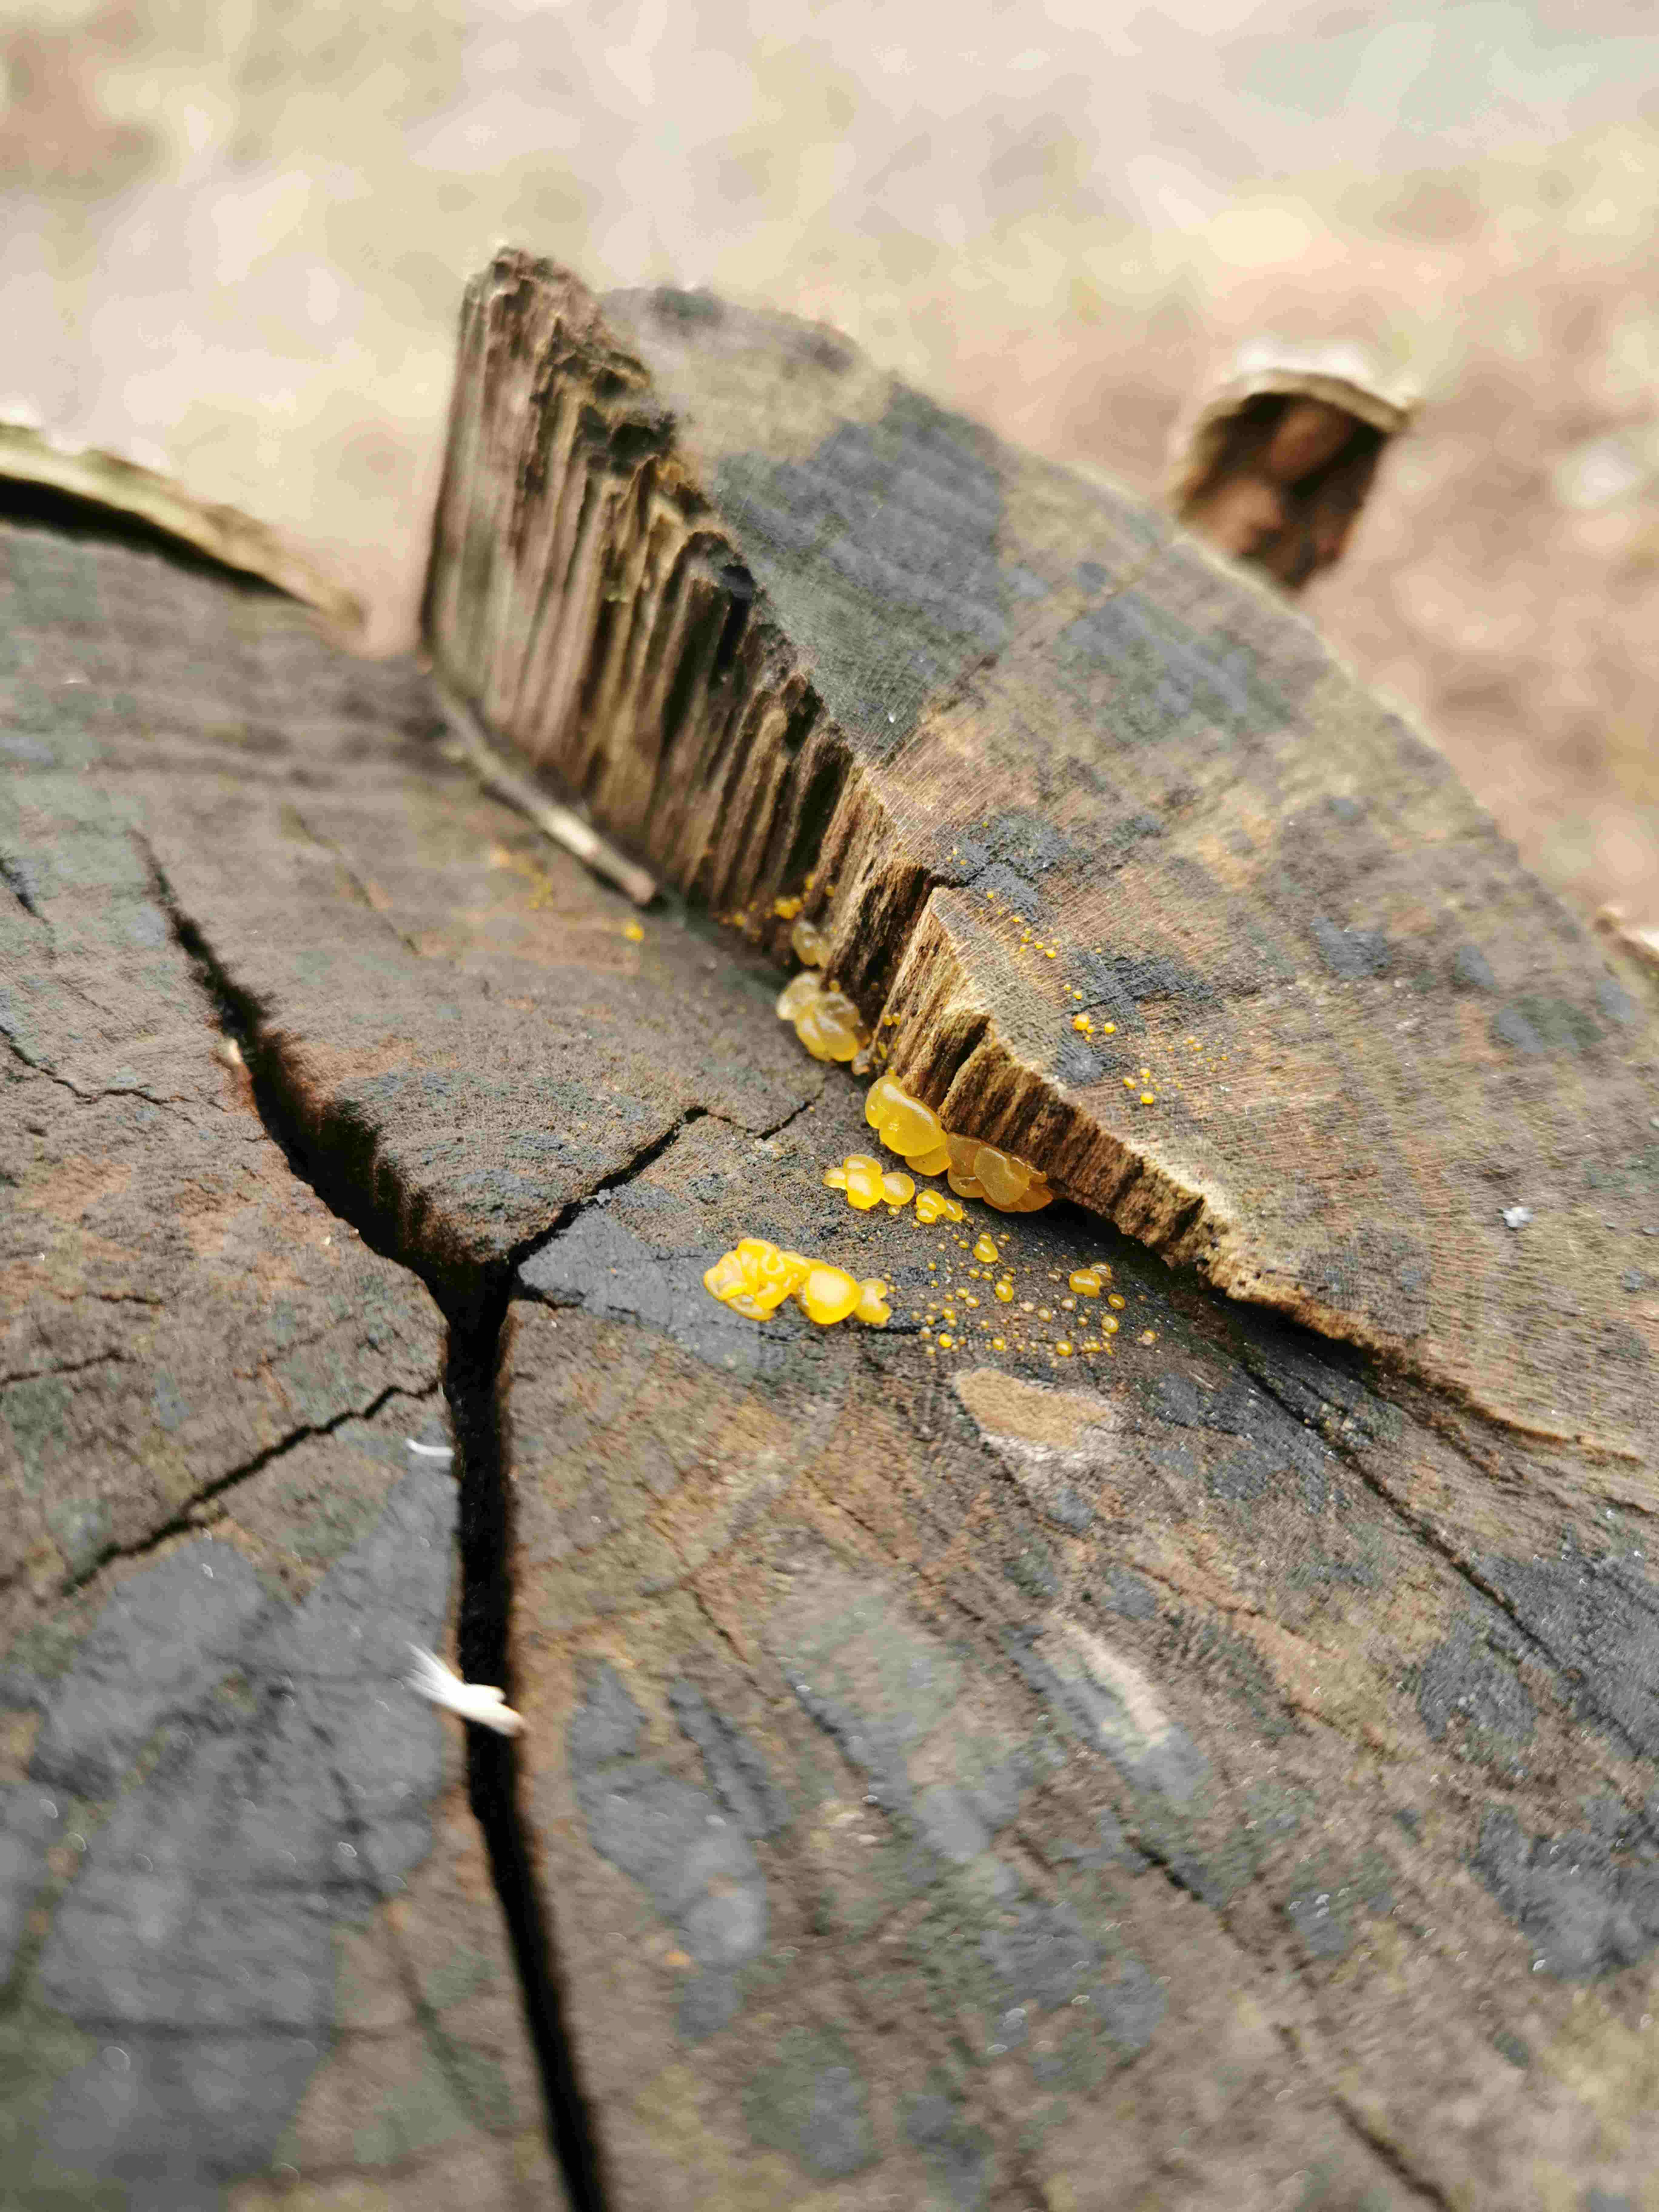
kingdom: Fungi
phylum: Basidiomycota
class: Dacrymycetes
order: Dacrymycetales
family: Dacrymycetaceae
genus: Dacrymyces
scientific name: Dacrymyces lacrymalis
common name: rynket tåresvamp
